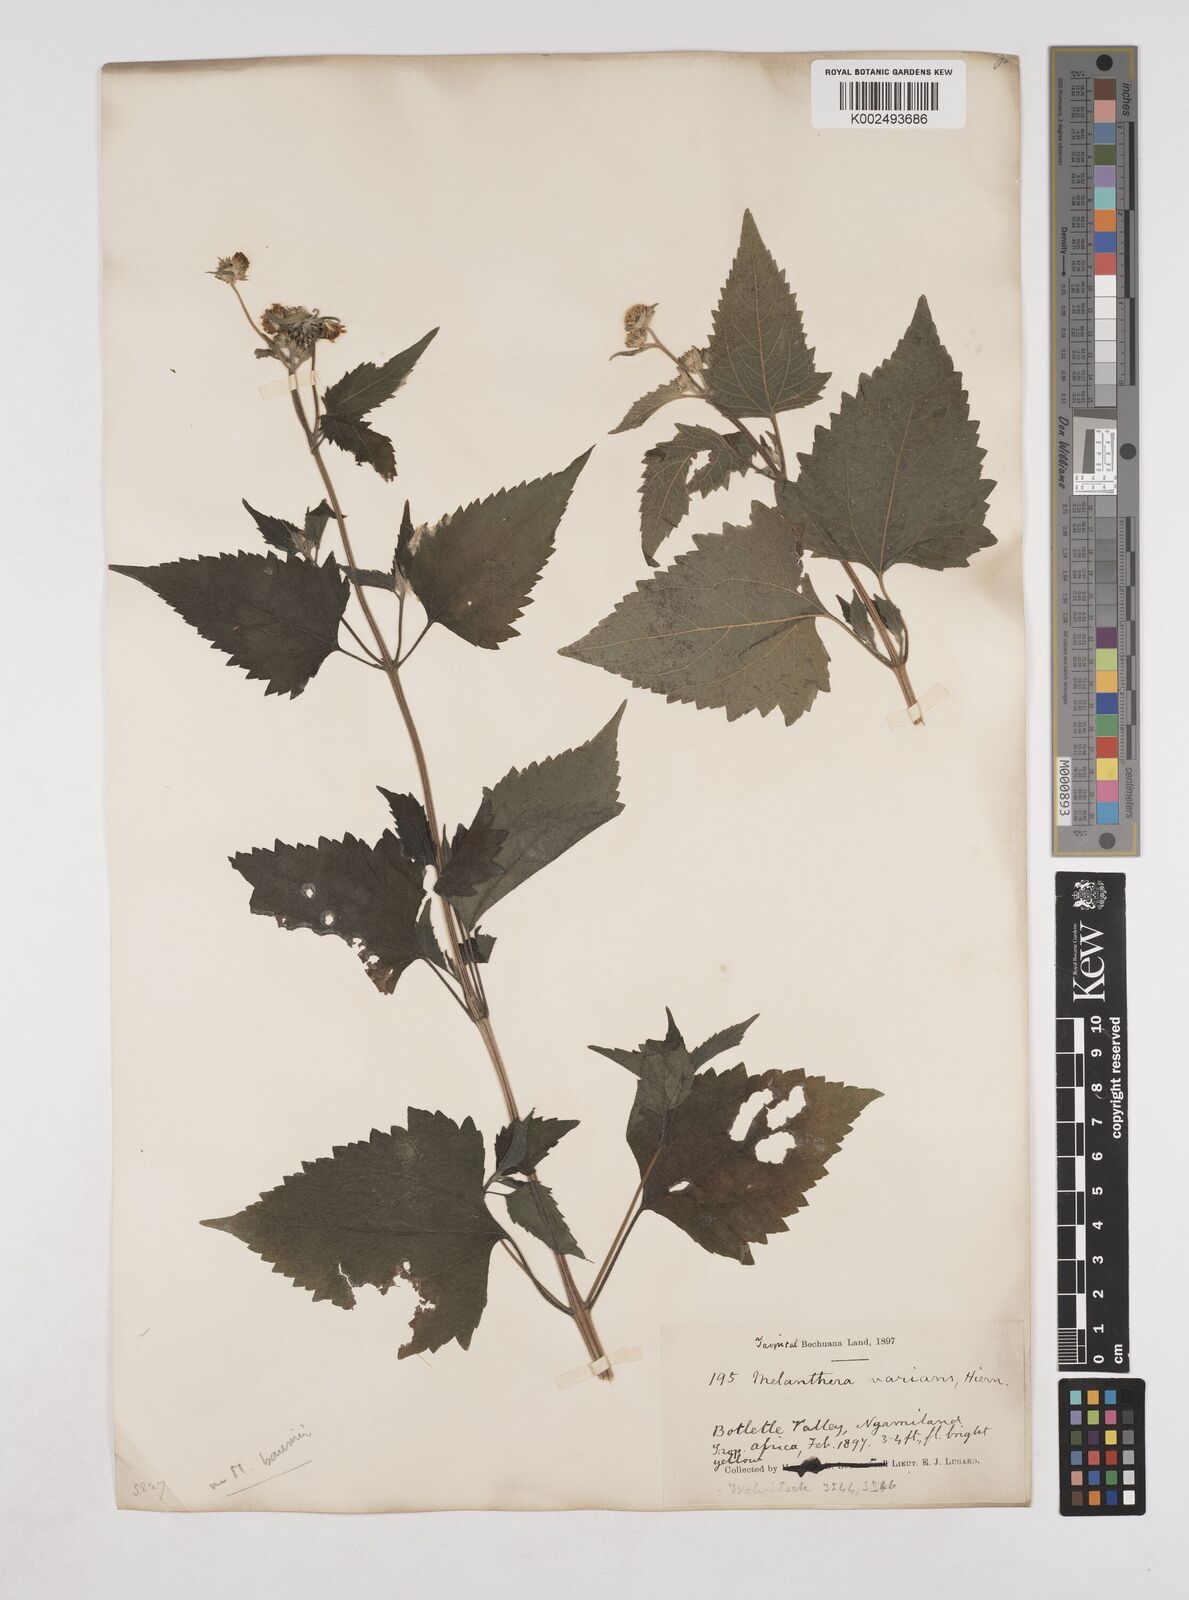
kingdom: Plantae
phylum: Tracheophyta
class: Magnoliopsida
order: Asterales
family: Asteraceae
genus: Lipotriche
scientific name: Lipotriche marlothiana
